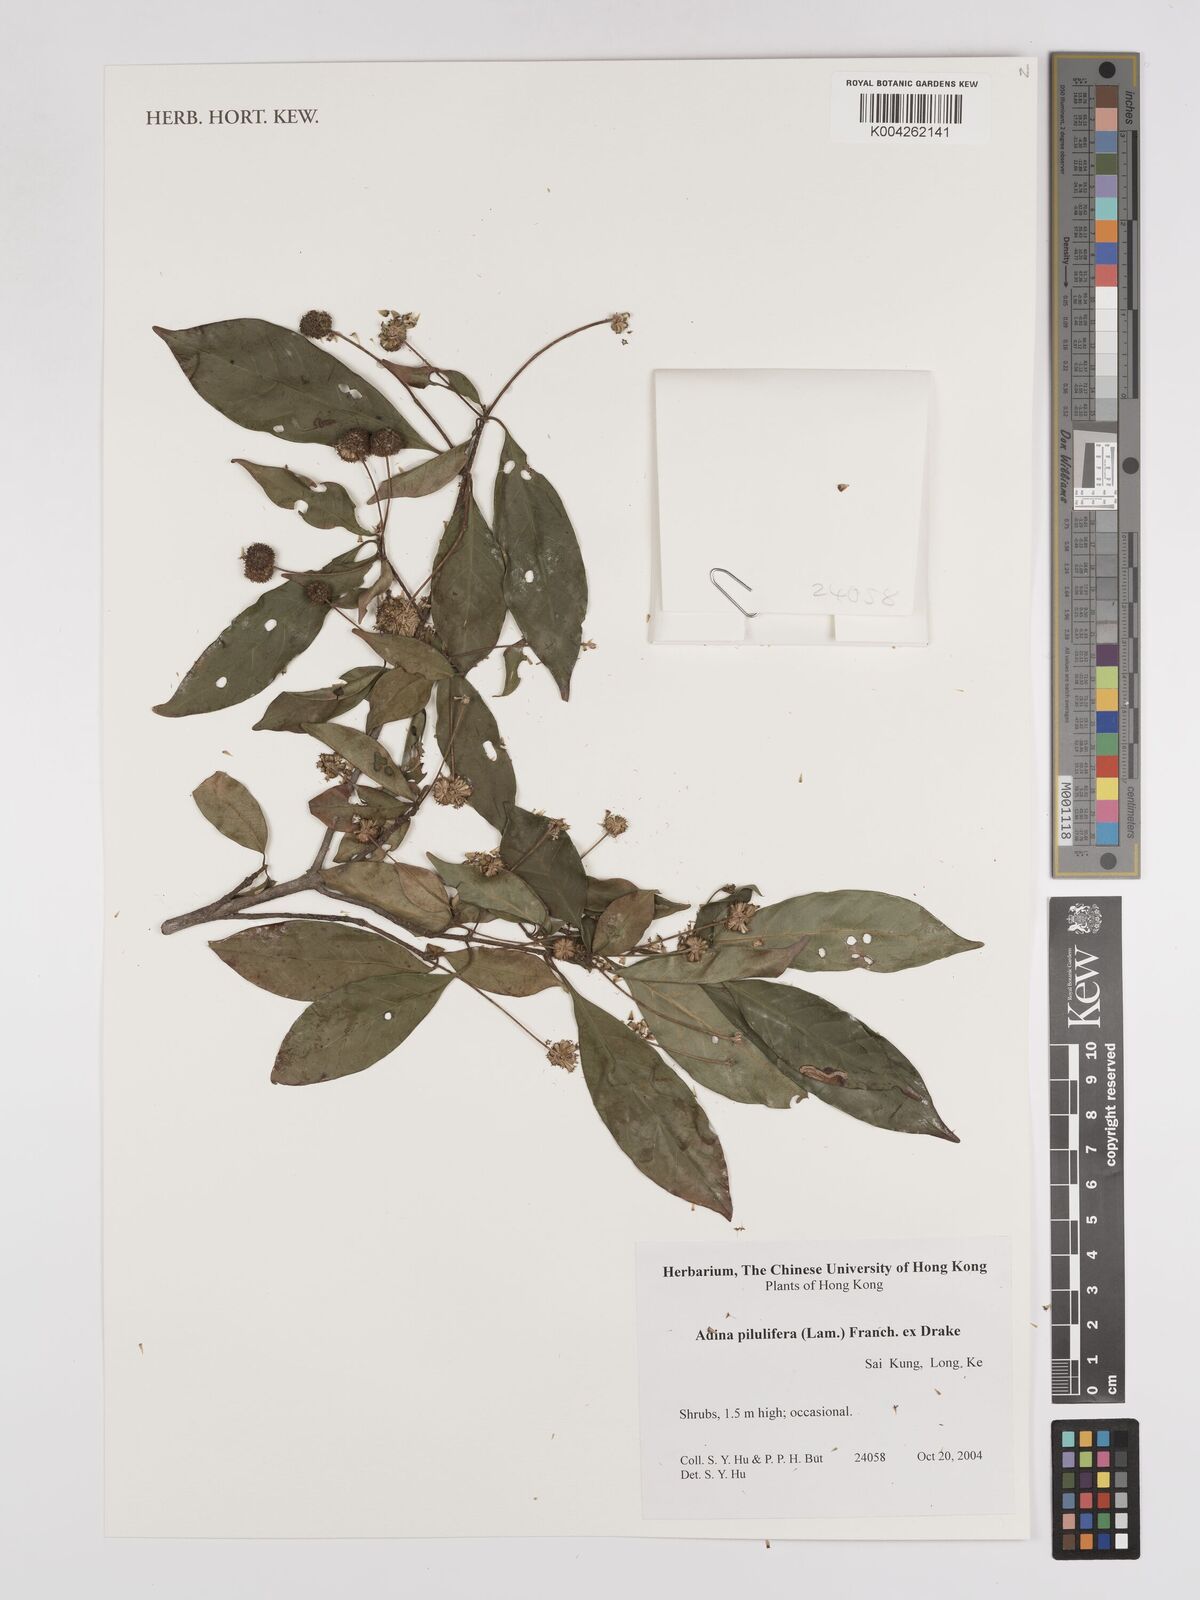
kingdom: Plantae
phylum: Tracheophyta
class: Magnoliopsida
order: Gentianales
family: Rubiaceae
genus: Adina
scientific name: Adina pilulifera
